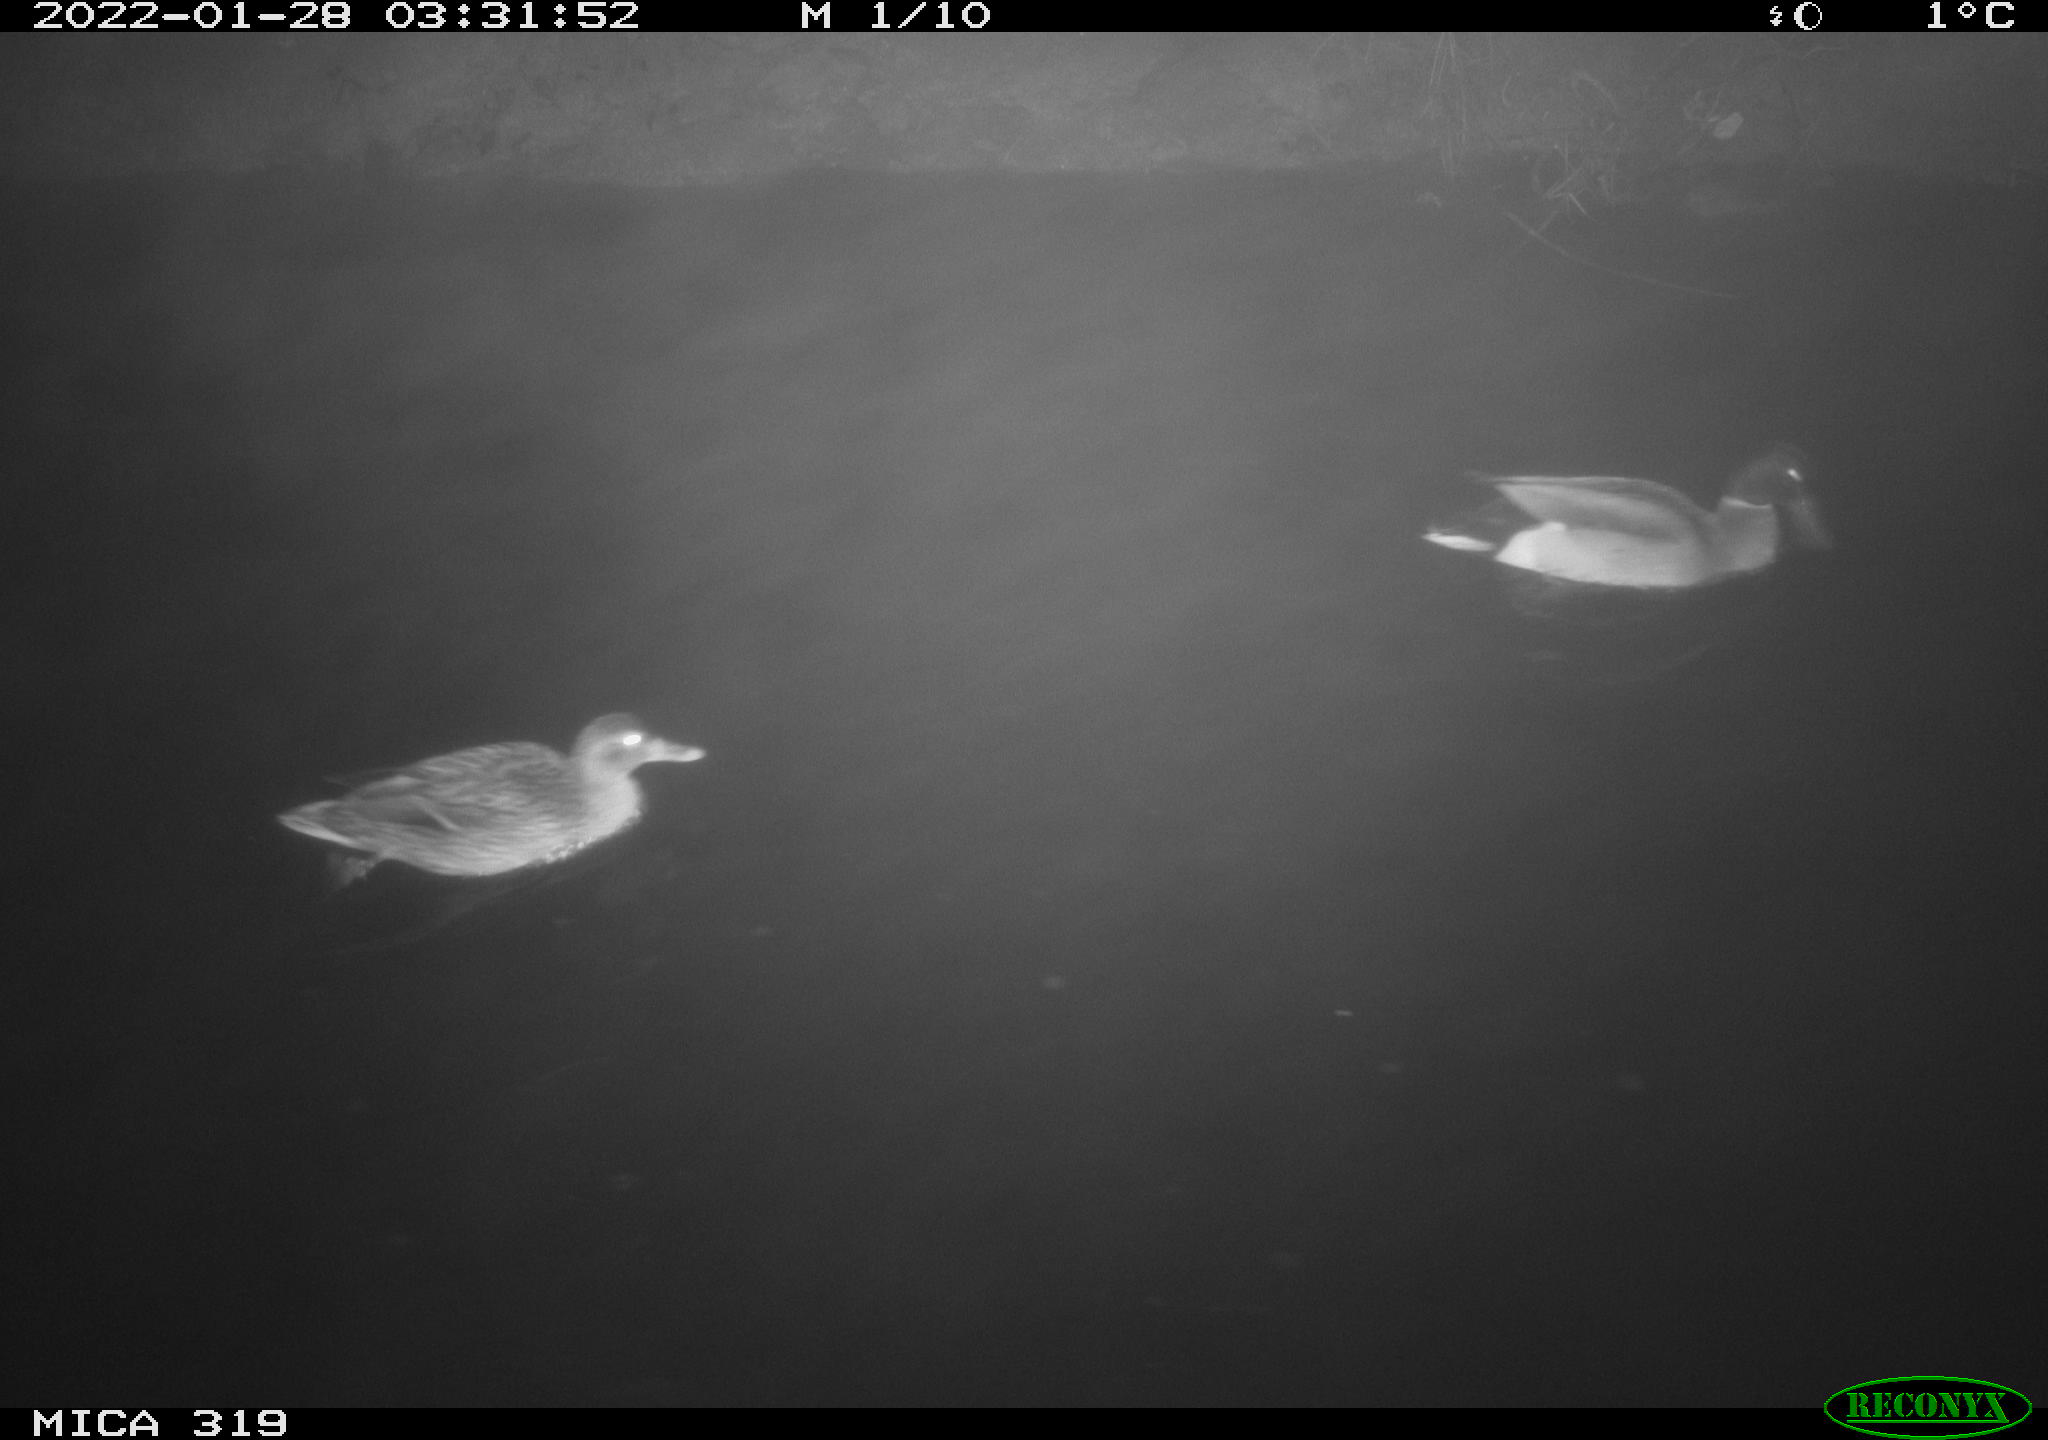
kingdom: Animalia
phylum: Chordata
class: Aves
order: Anseriformes
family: Anatidae
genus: Anas
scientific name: Anas platyrhynchos
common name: Mallard
